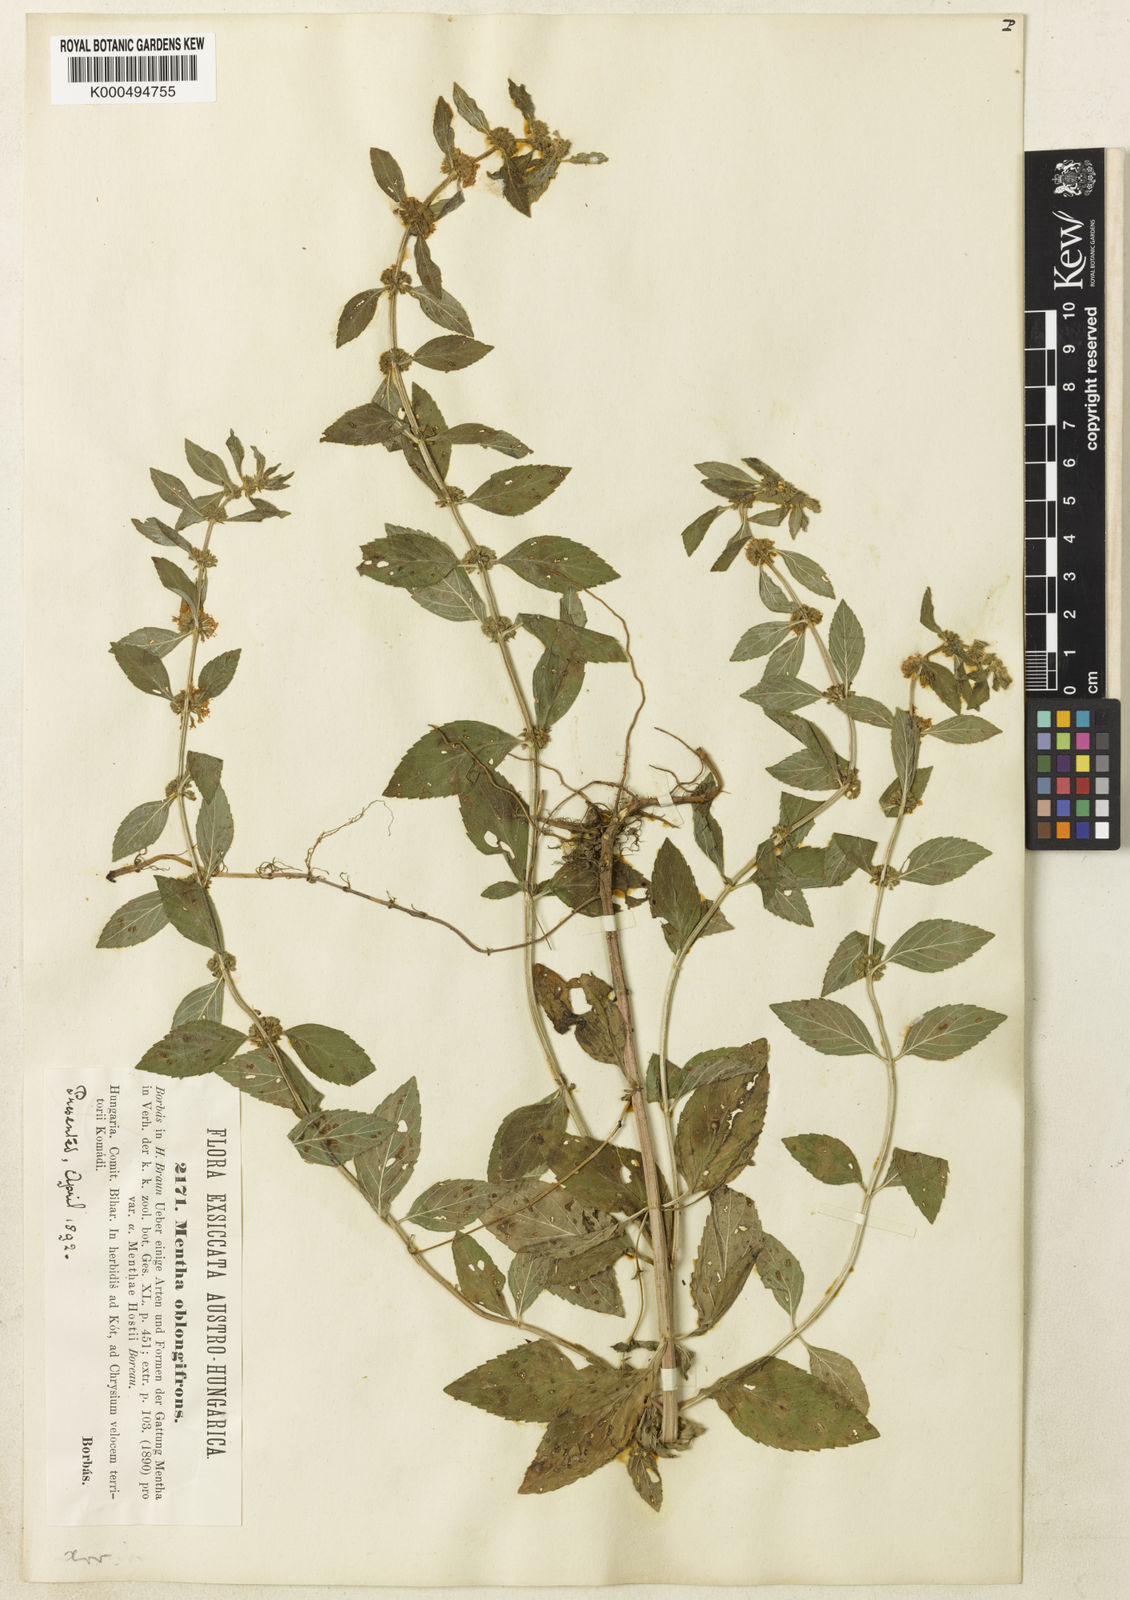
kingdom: Plantae
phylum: Tracheophyta
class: Magnoliopsida
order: Lamiales
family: Lamiaceae
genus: Mentha
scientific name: Mentha arvensis
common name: Corn mint
